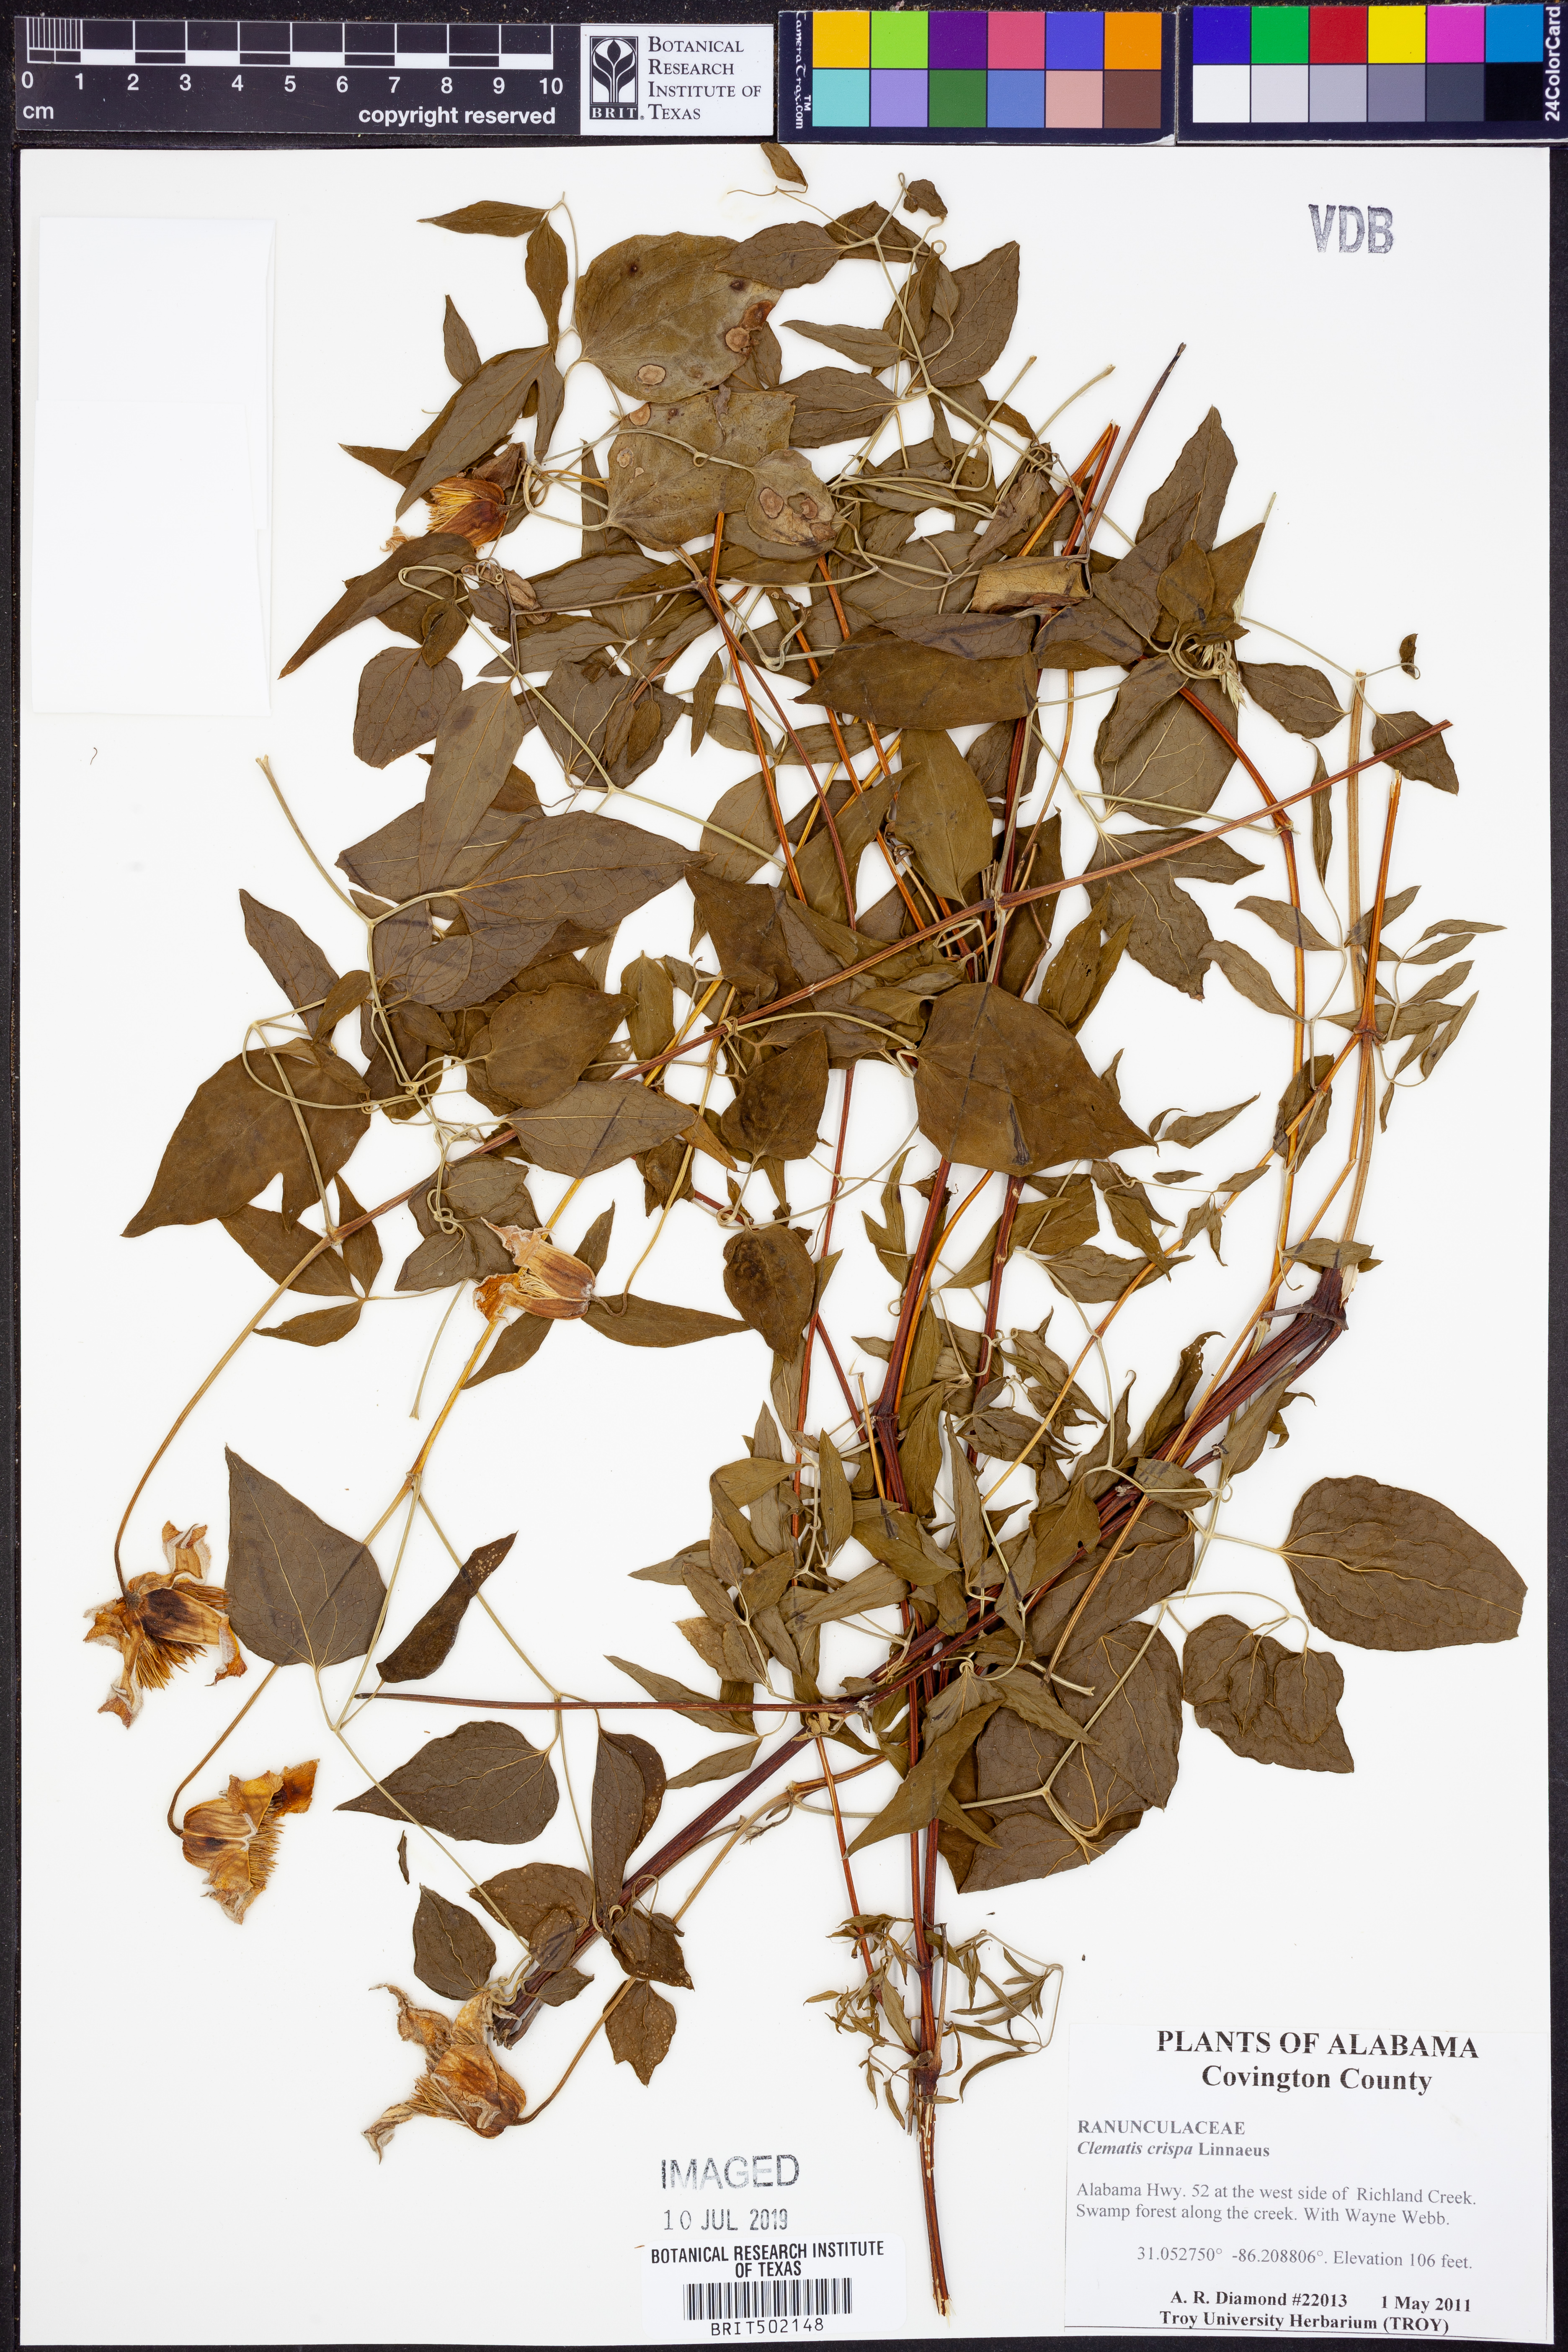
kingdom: Plantae
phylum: Tracheophyta
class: Magnoliopsida
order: Ranunculales
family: Ranunculaceae
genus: Clematis
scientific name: Clematis crispa
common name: Curly clematis
